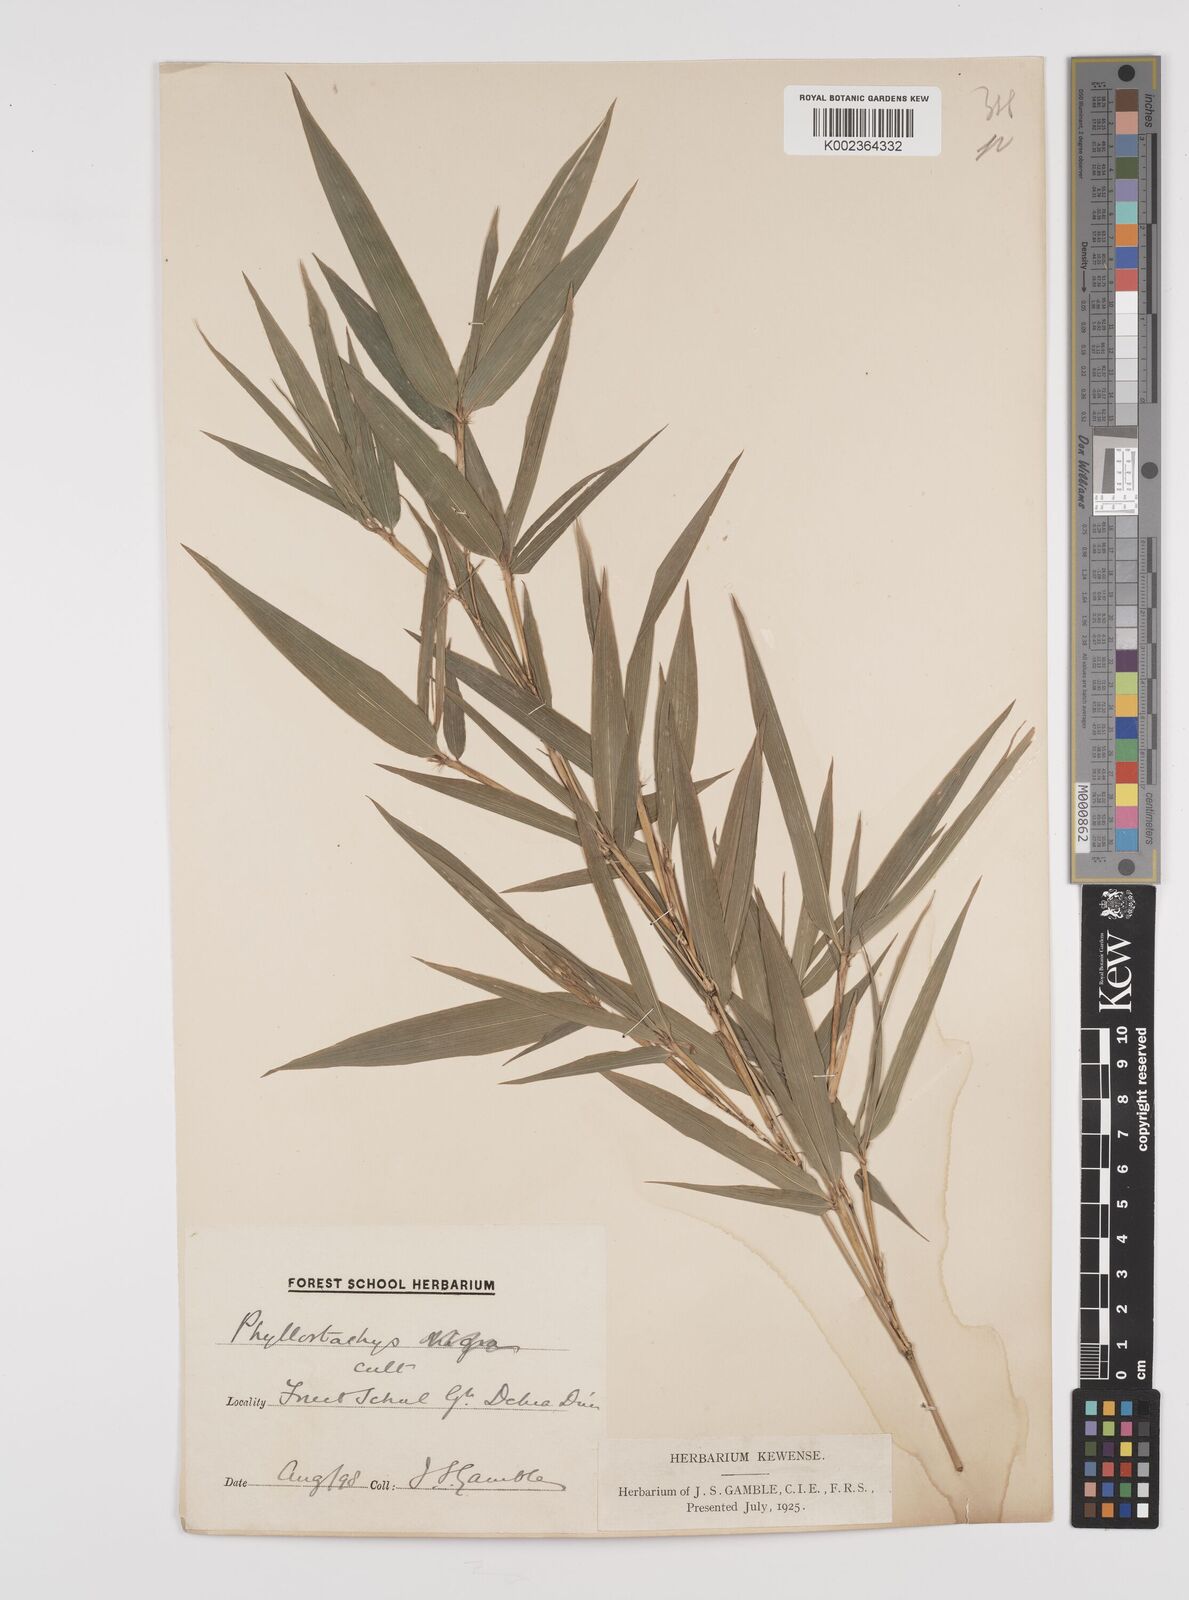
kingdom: Plantae
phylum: Tracheophyta
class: Liliopsida
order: Poales
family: Poaceae
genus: Phyllostachys
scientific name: Phyllostachys reticulata
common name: Bamboo
